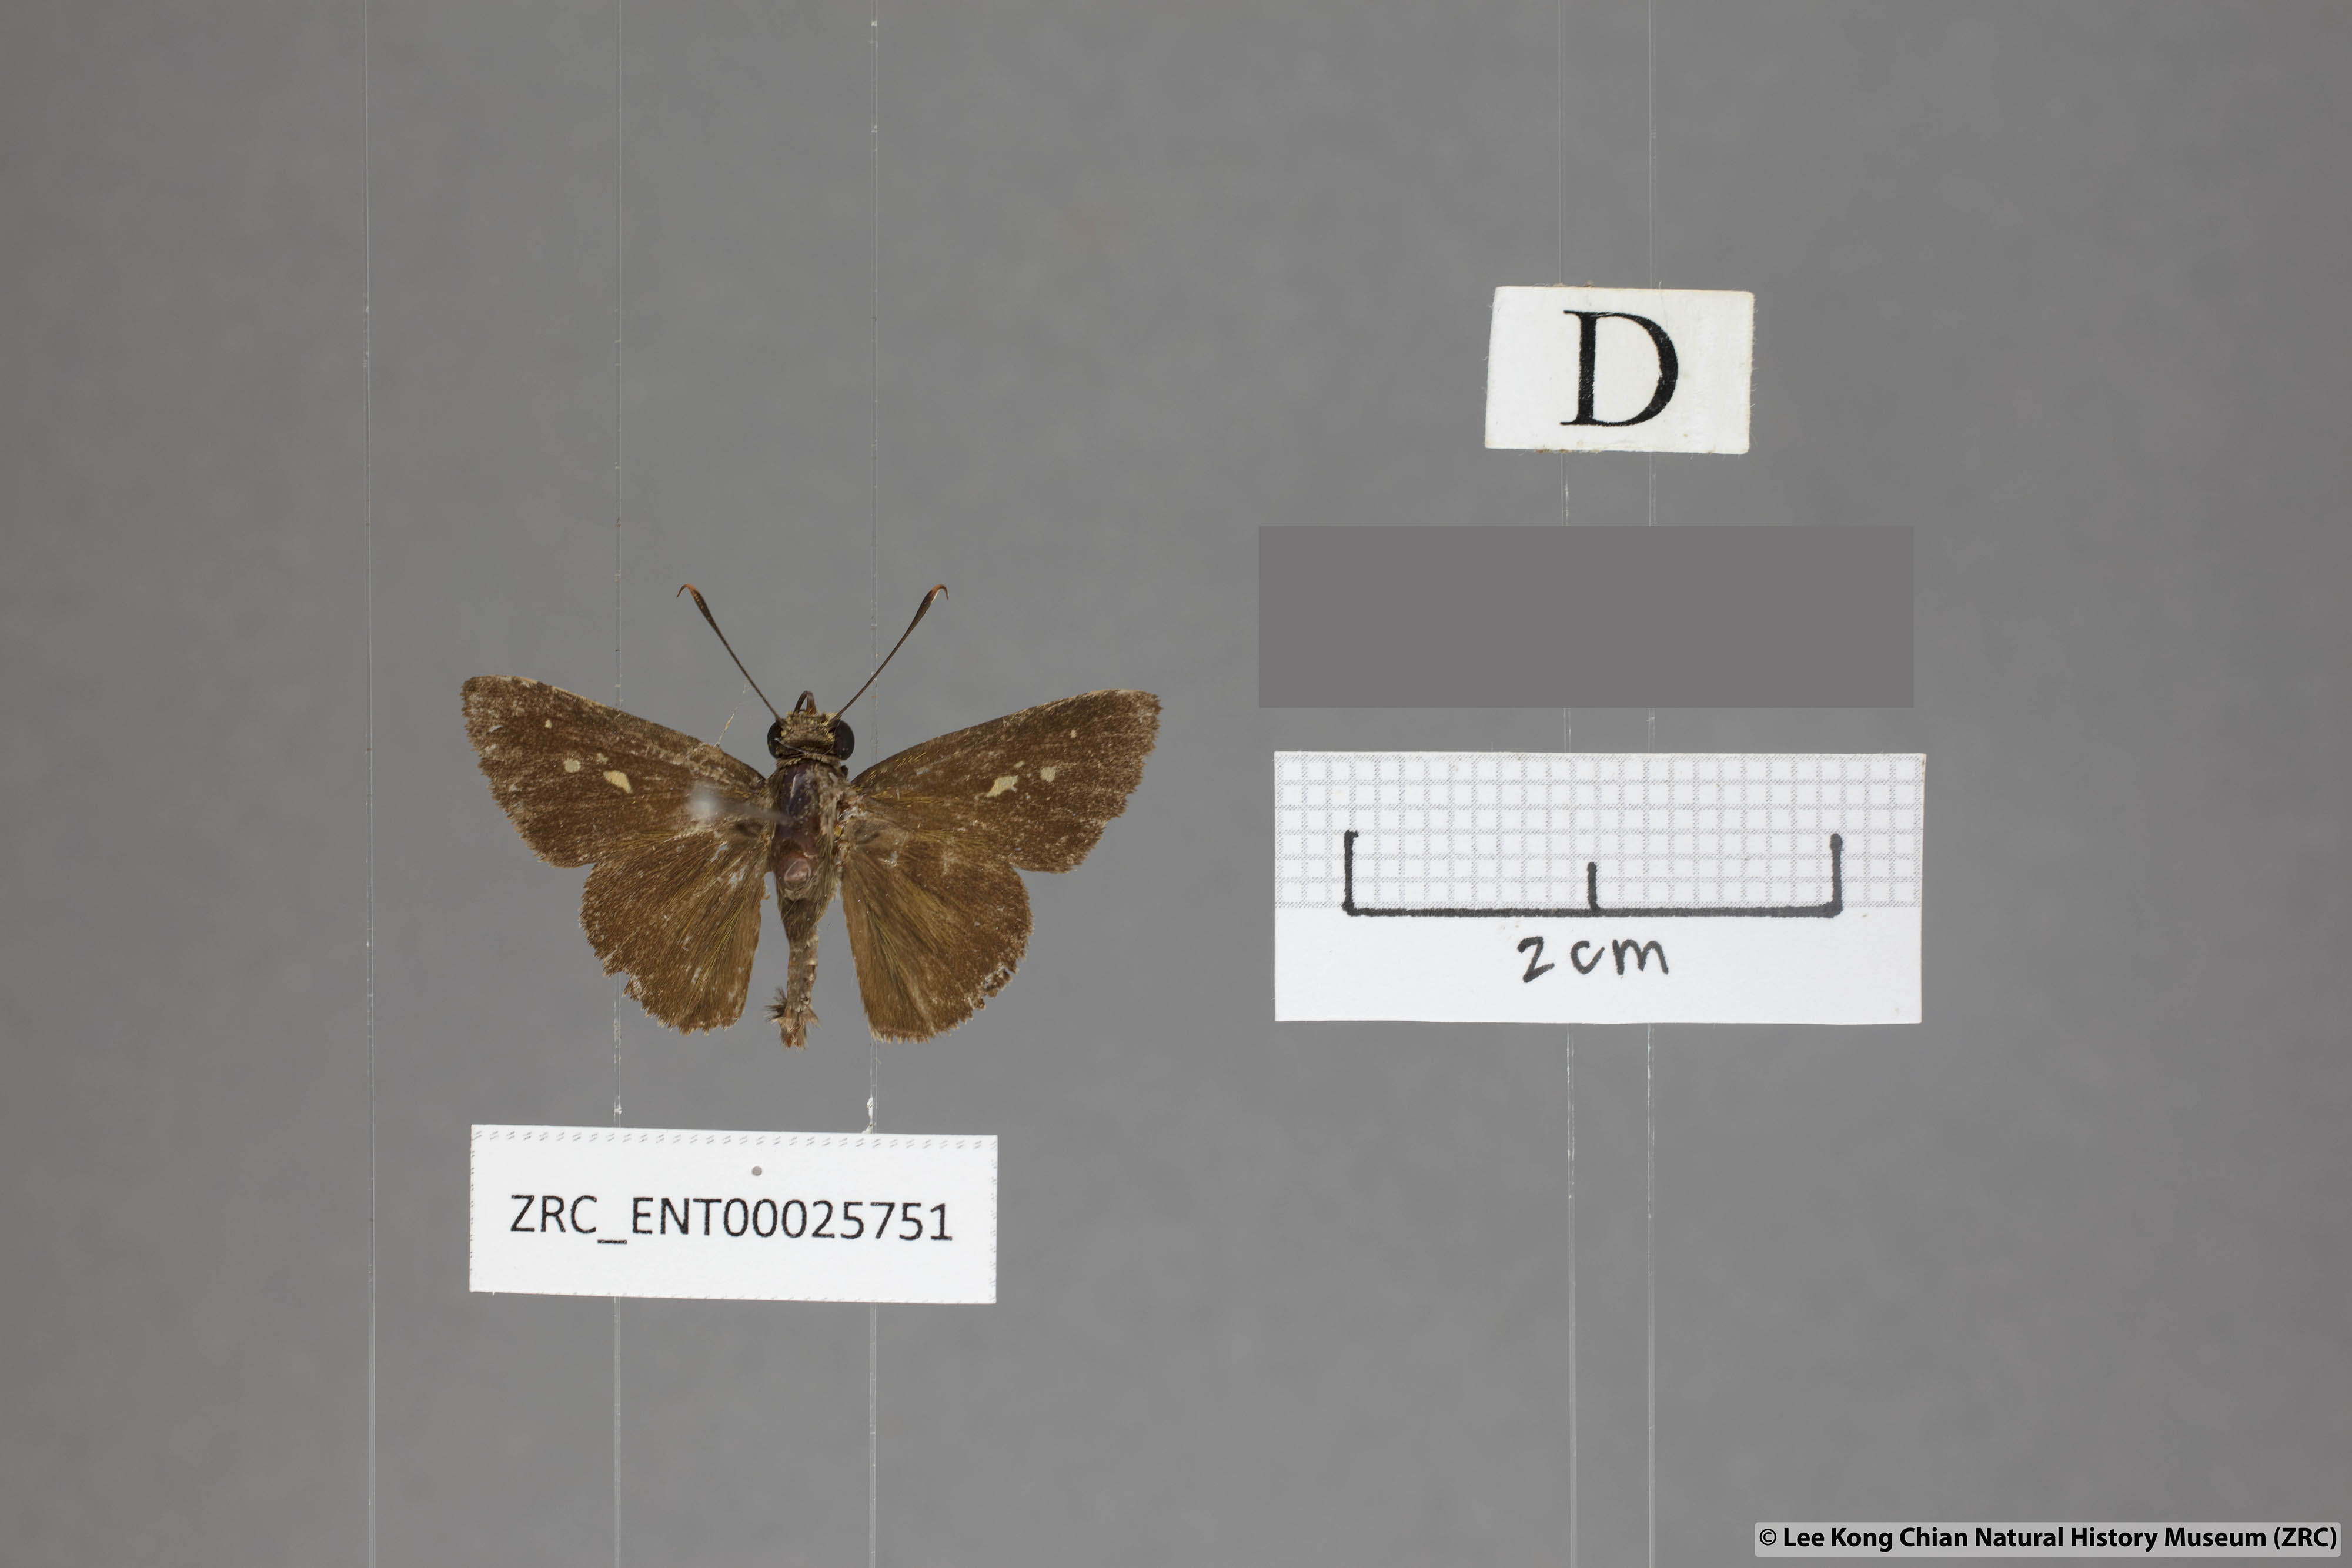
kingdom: Animalia
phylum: Arthropoda
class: Insecta
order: Lepidoptera
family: Hesperiidae
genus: Zographetus
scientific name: Zographetus rama
